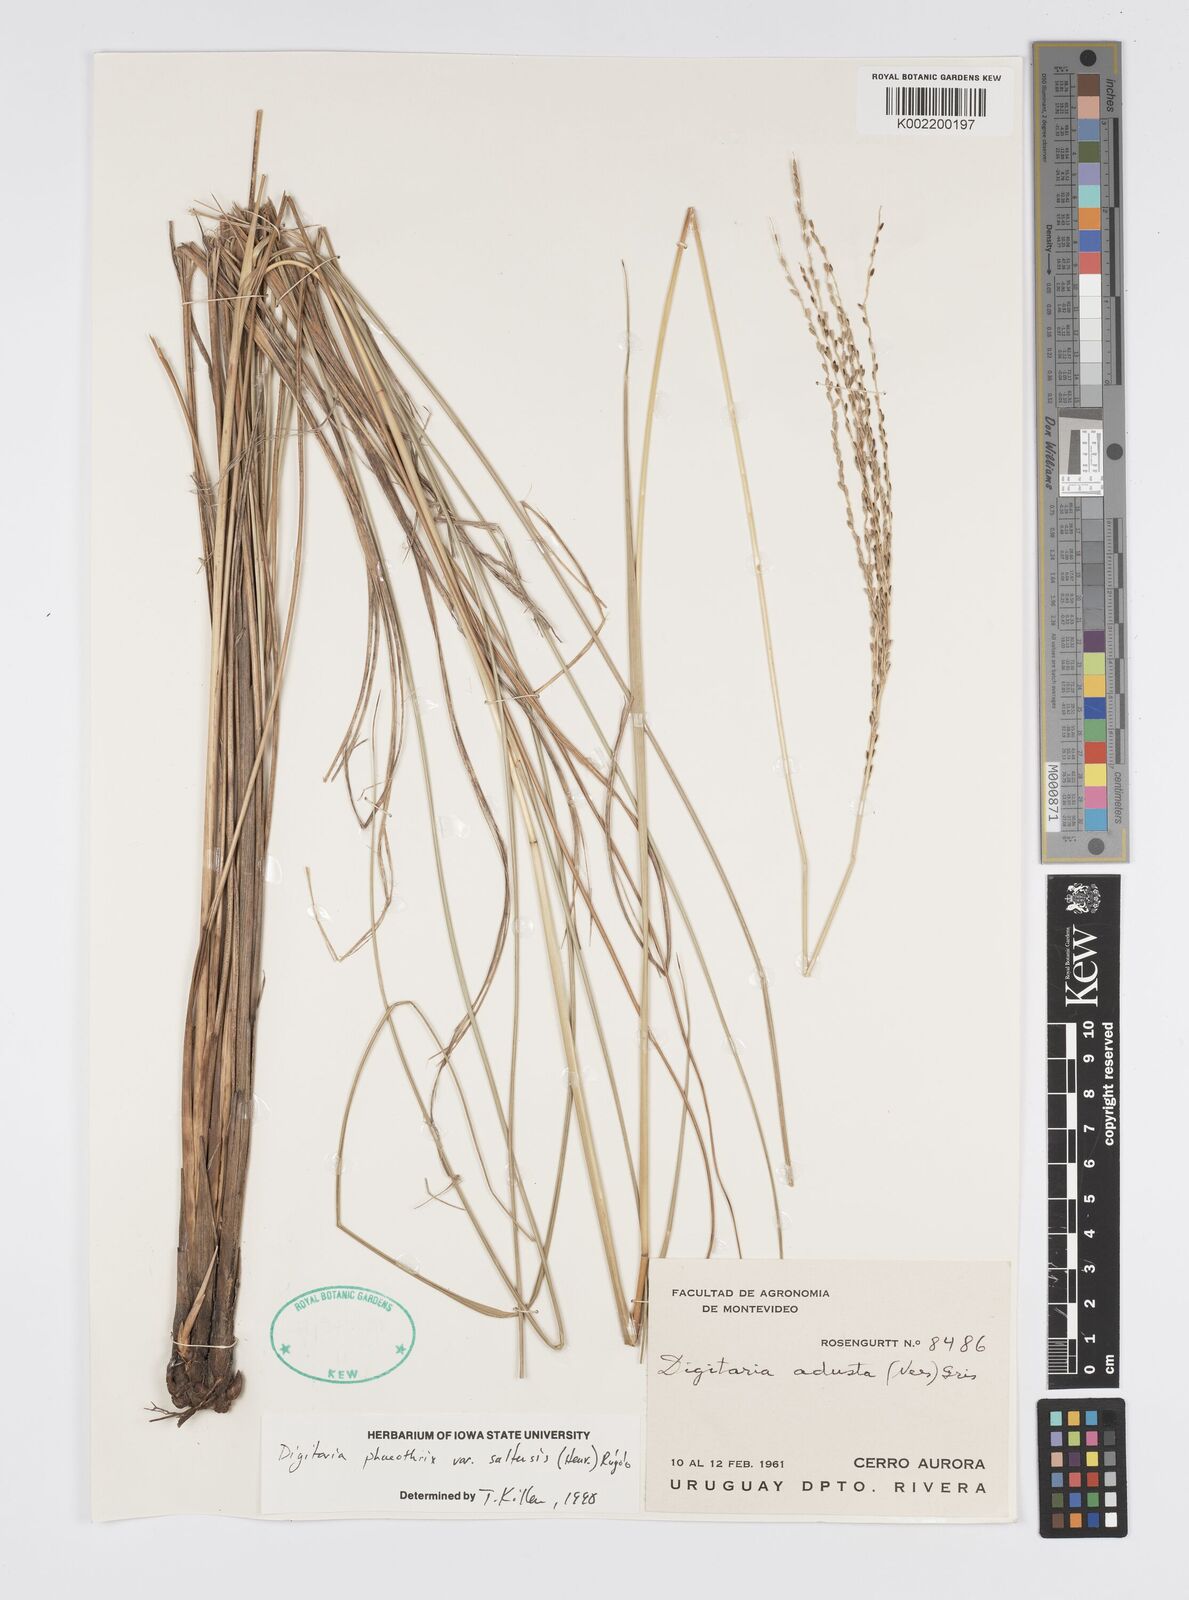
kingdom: Plantae
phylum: Tracheophyta
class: Liliopsida
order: Poales
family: Poaceae
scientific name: Poaceae
